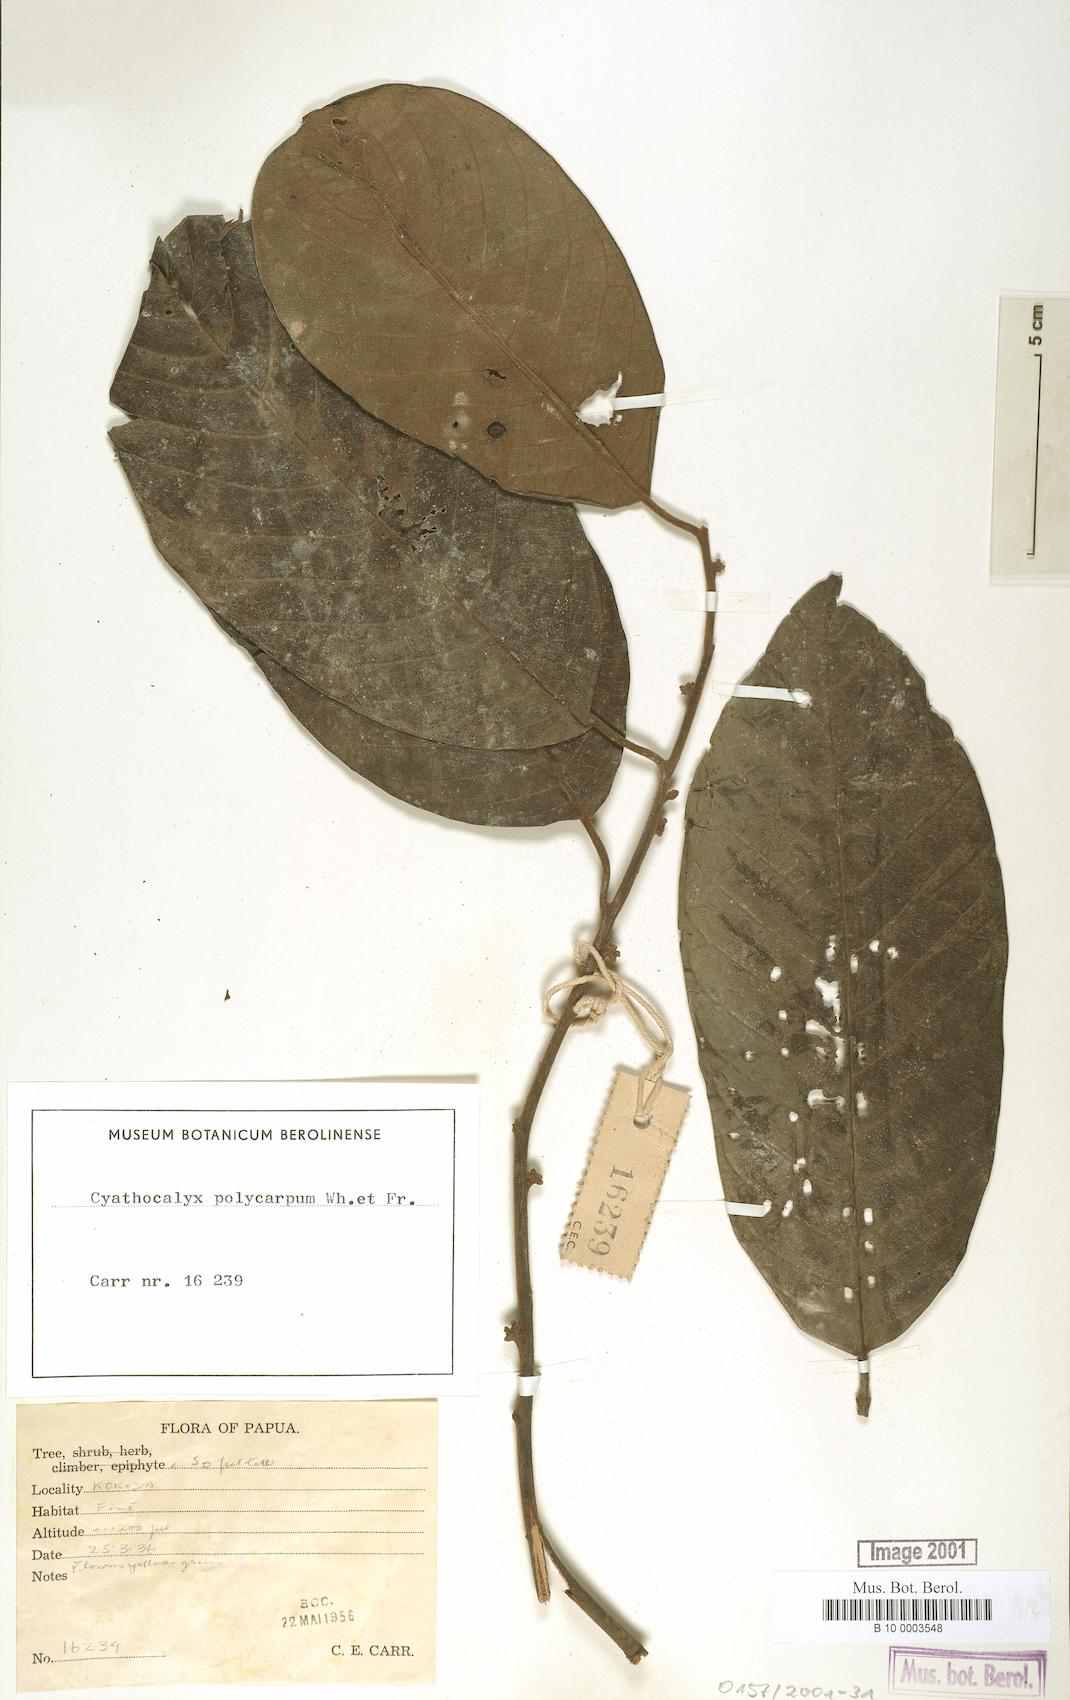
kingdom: Plantae
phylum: Tracheophyta
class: Magnoliopsida
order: Magnoliales
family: Annonaceae
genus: Drepananthus
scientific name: Drepananthus polycarpus
